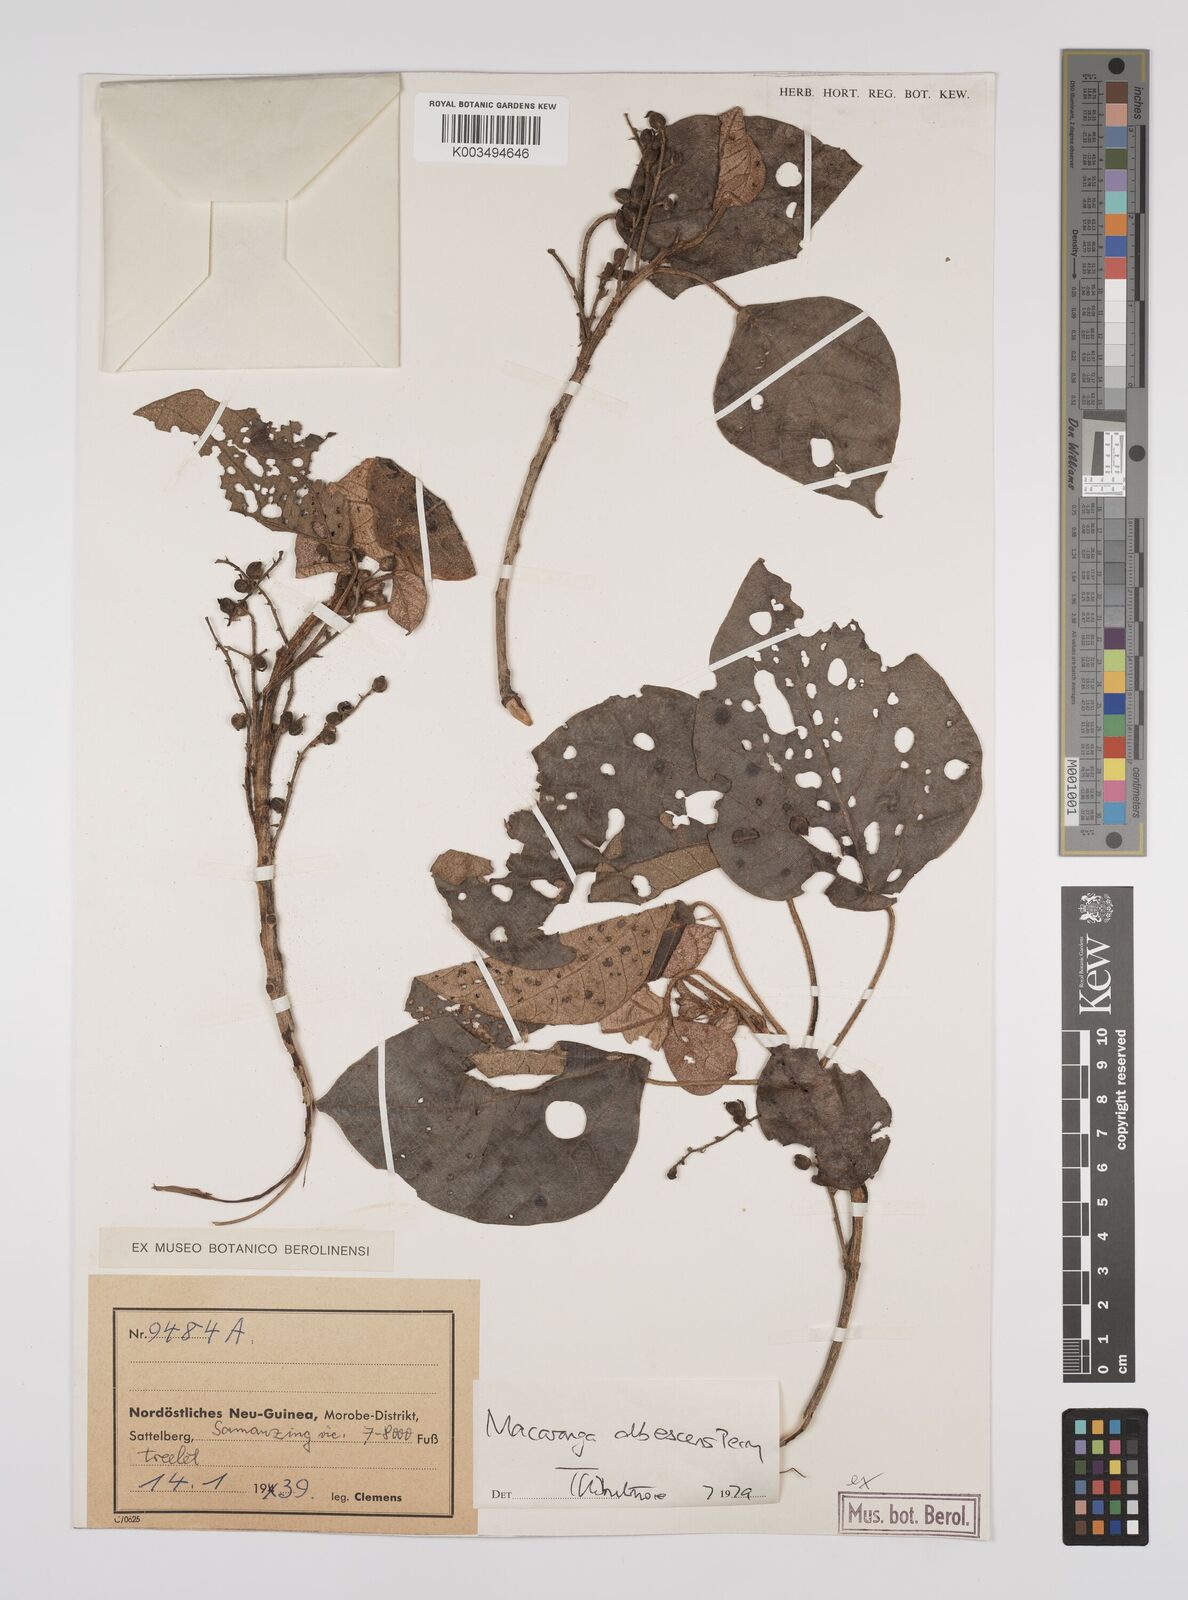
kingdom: Plantae
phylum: Tracheophyta
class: Magnoliopsida
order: Malpighiales
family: Euphorbiaceae
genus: Macaranga
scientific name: Macaranga albescens
